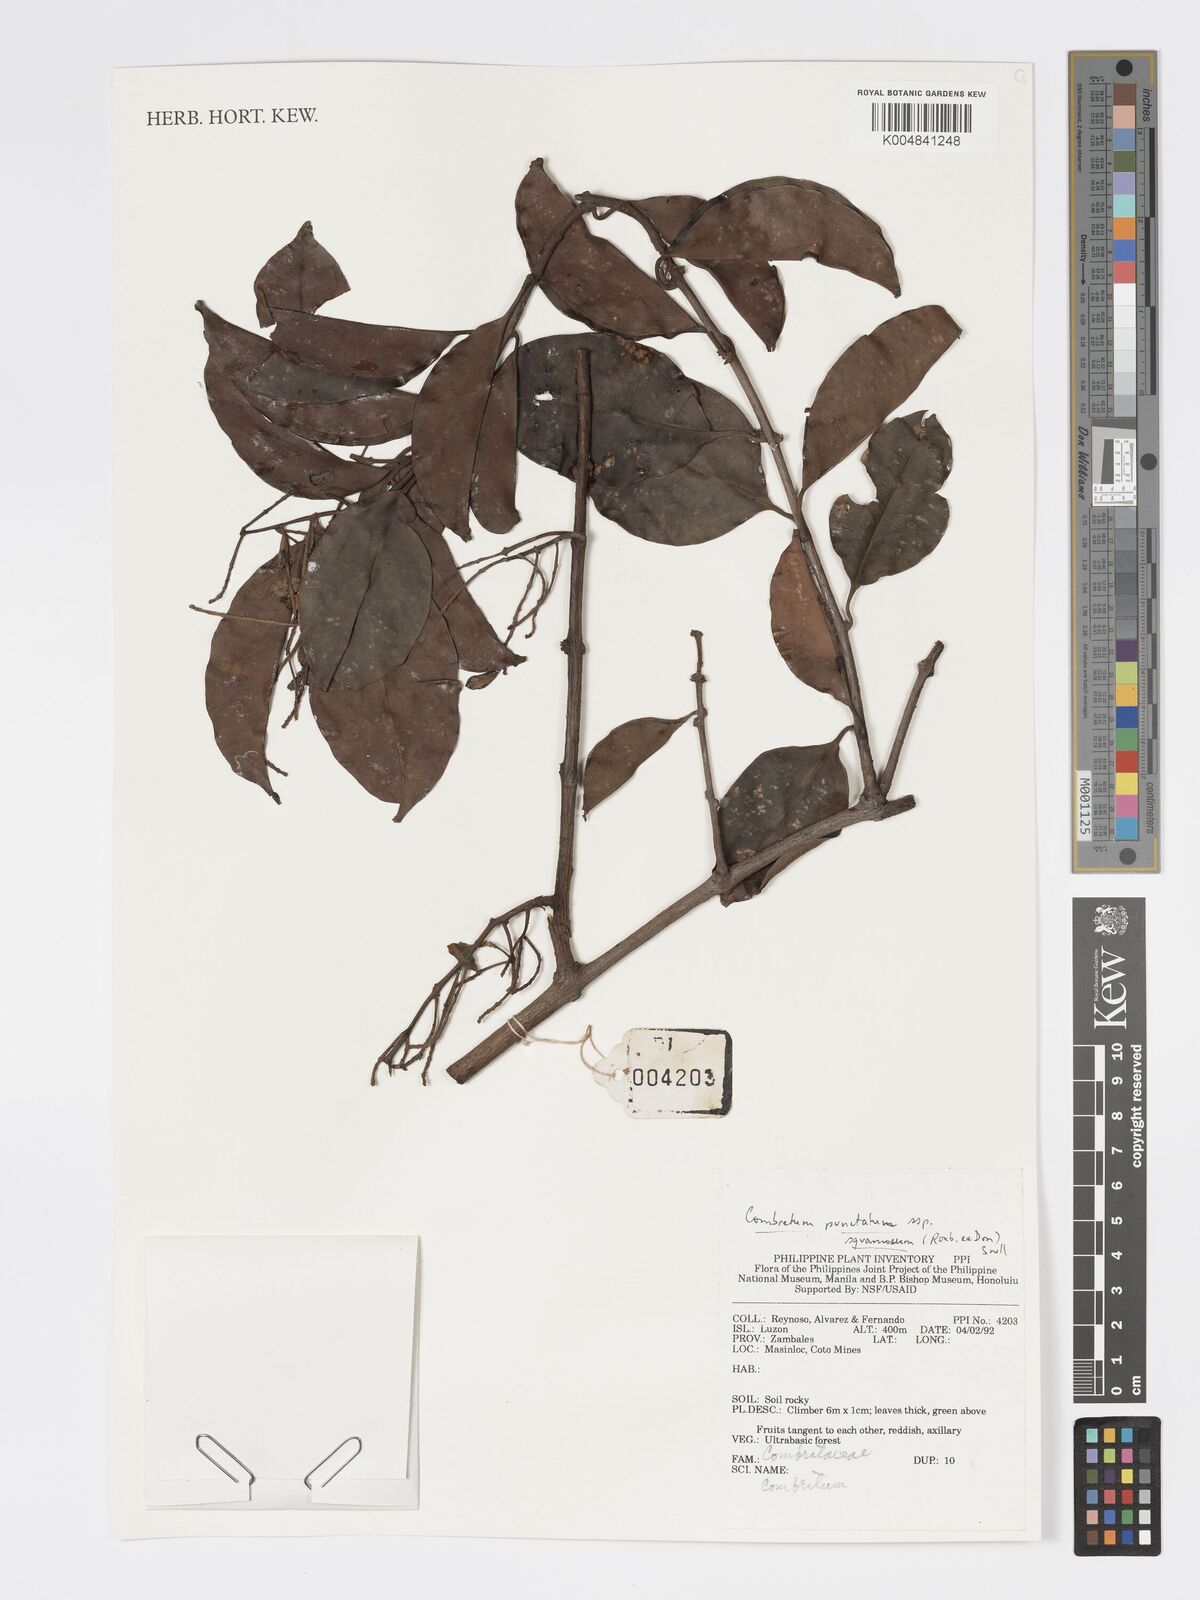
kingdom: Plantae
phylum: Tracheophyta
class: Magnoliopsida
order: Myrtales
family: Combretaceae
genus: Combretum
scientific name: Combretum
